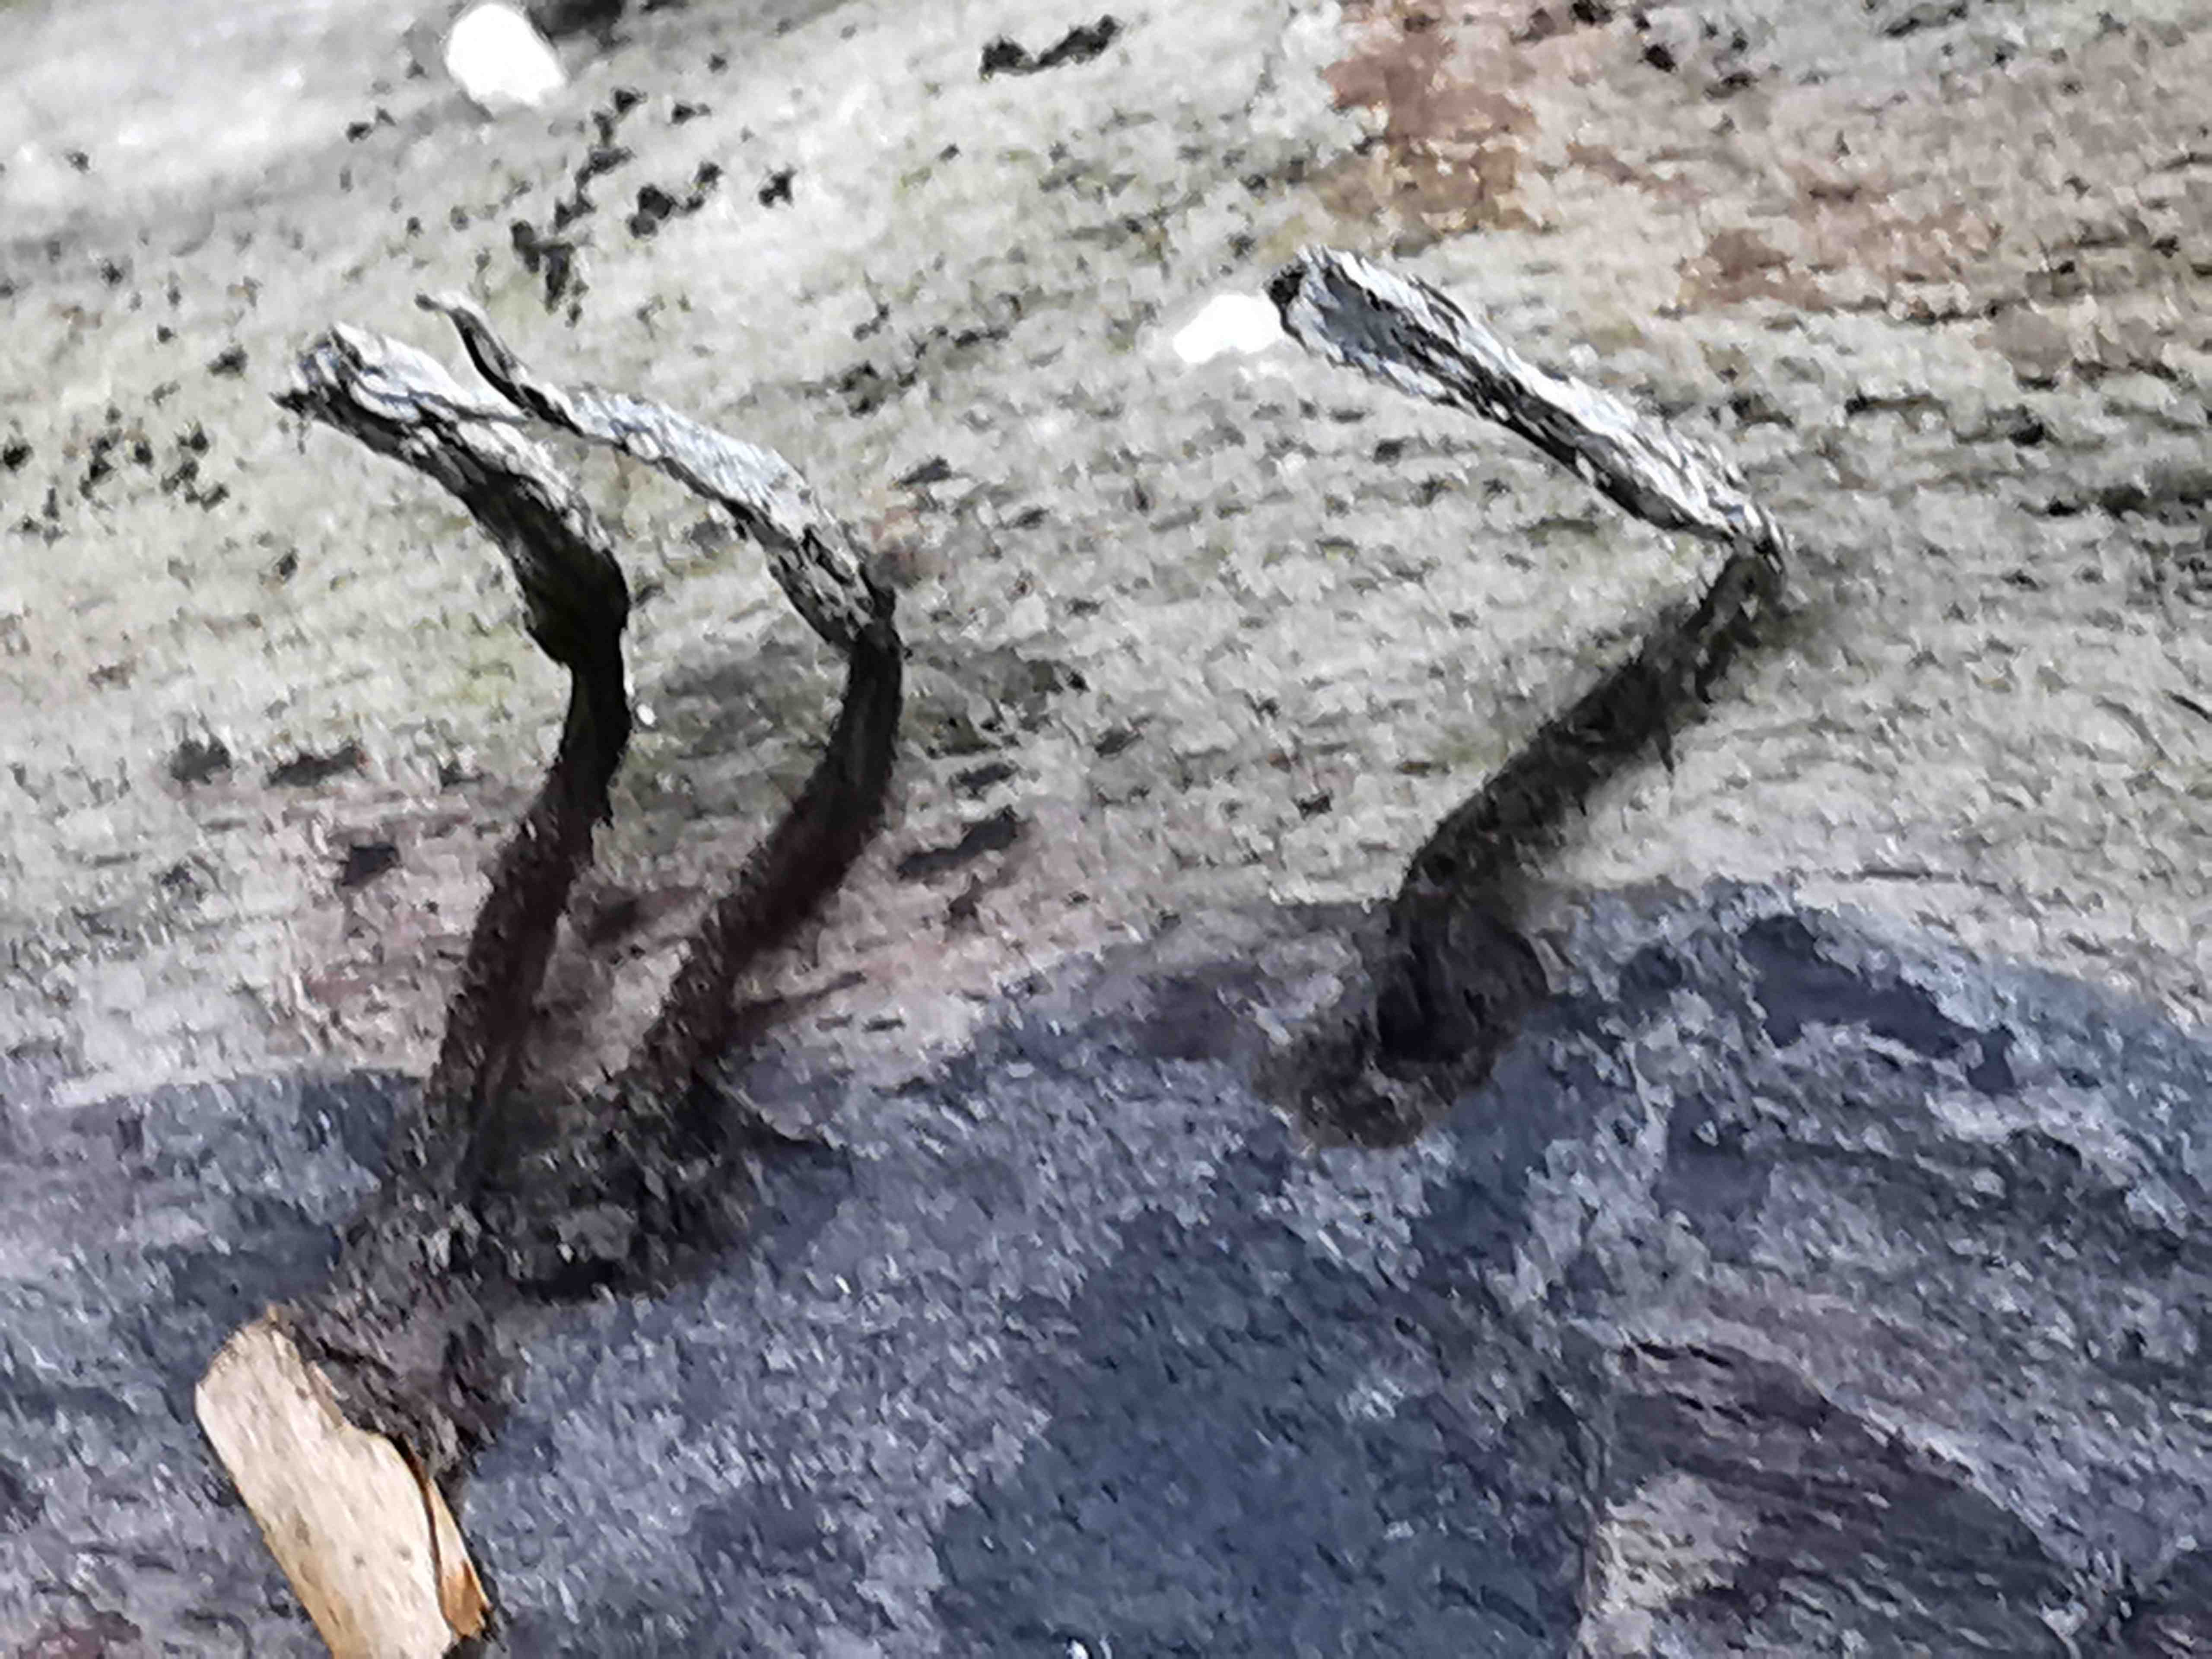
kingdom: Fungi
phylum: Ascomycota
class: Sordariomycetes
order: Xylariales
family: Xylariaceae
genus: Xylaria
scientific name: Xylaria hypoxylon
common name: grenet stødsvamp
